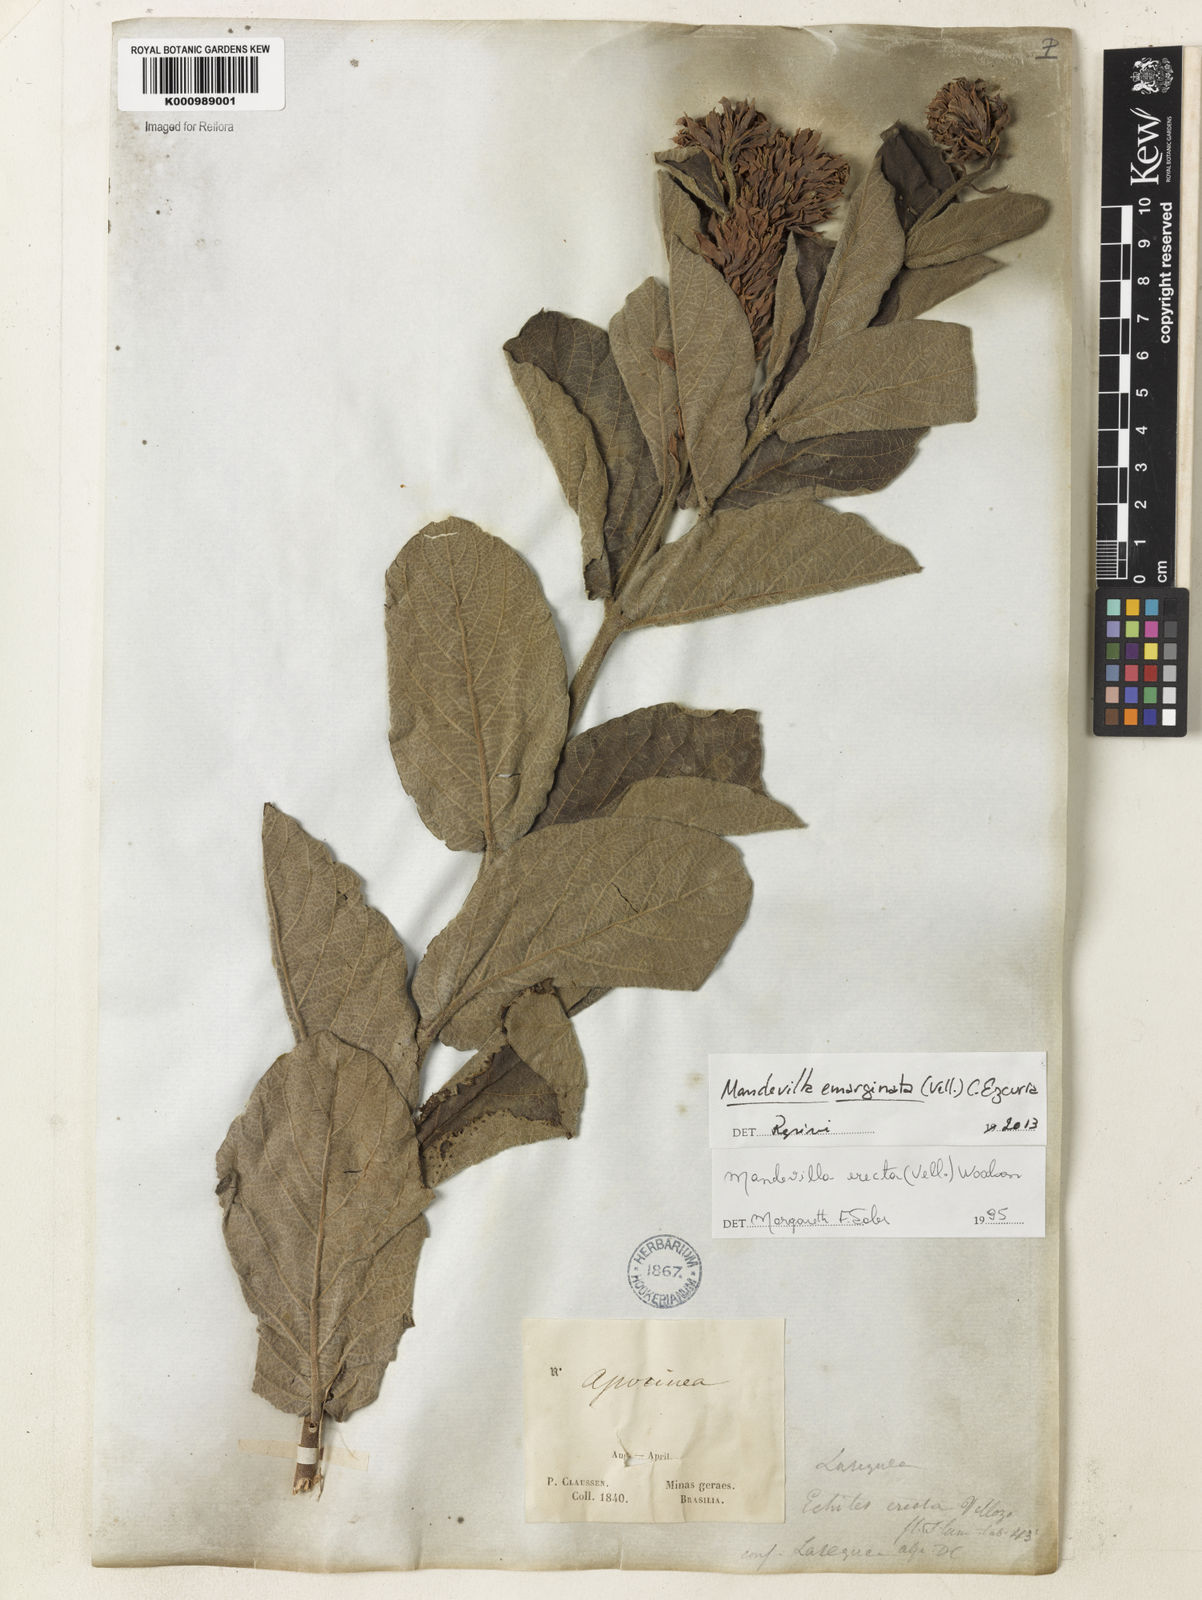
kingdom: Plantae
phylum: Tracheophyta
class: Magnoliopsida
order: Gentianales
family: Apocynaceae
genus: Mandevilla
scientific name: Mandevilla emarginata
